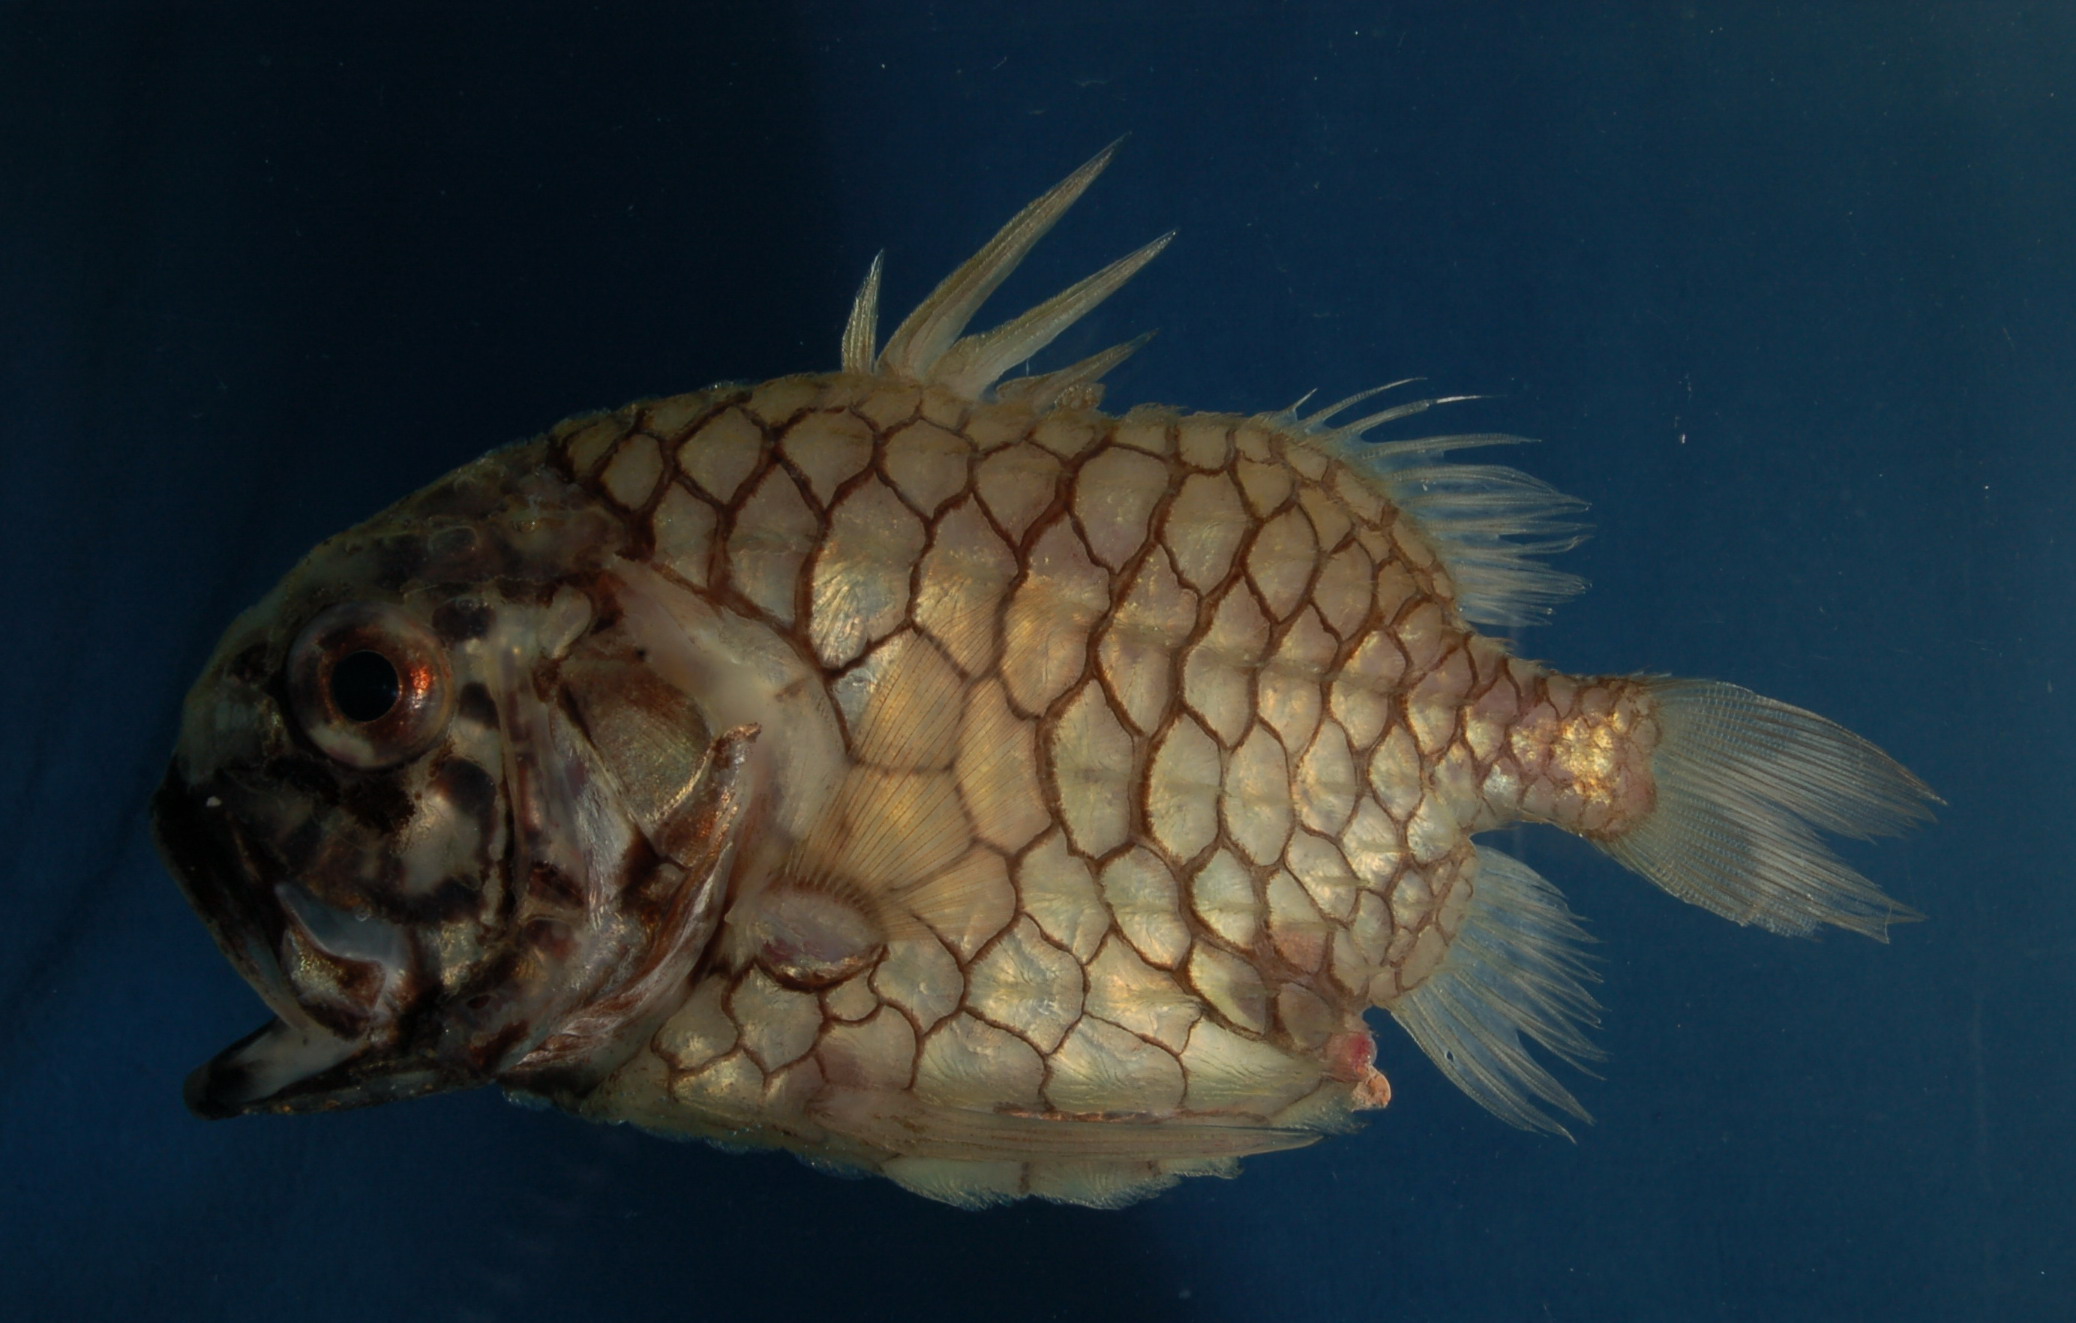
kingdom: Animalia
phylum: Chordata
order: Beryciformes
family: Monocentridae
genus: Monocentris
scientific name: Monocentris japonica
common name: Pineconefish
